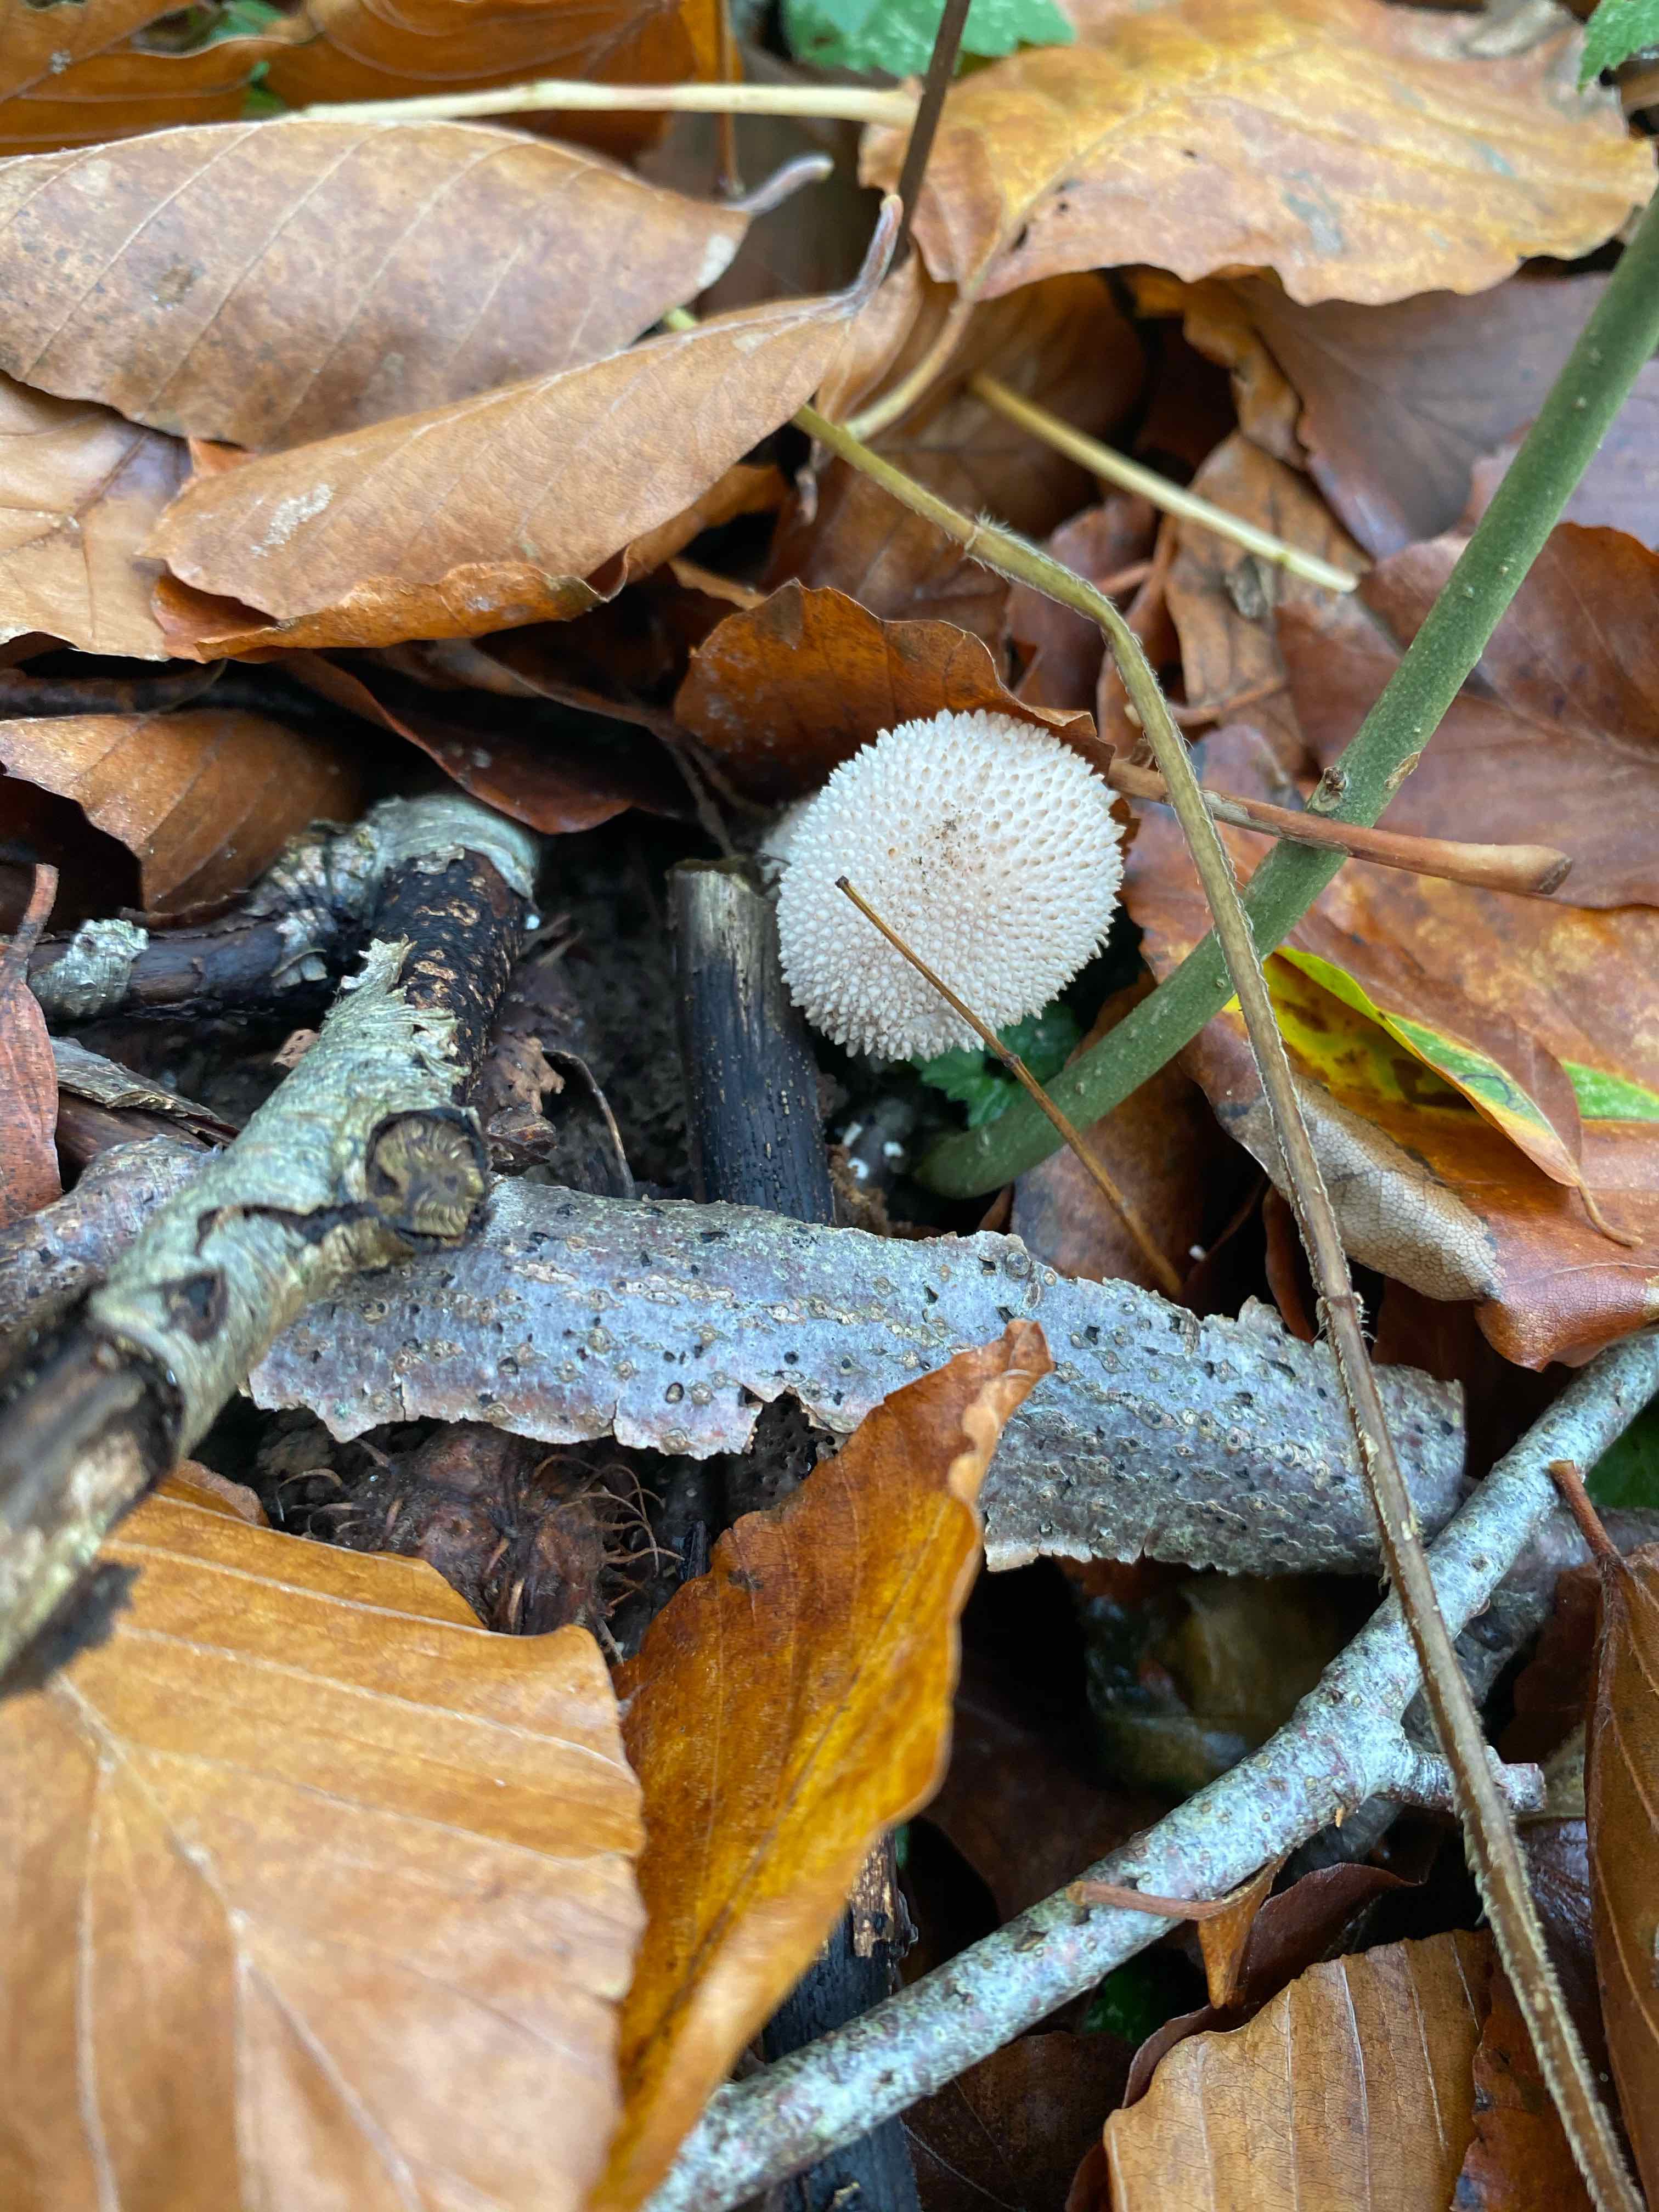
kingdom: Fungi
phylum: Basidiomycota
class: Agaricomycetes
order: Agaricales
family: Lycoperdaceae
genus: Lycoperdon
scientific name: Lycoperdon perlatum
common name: krystal-støvbold
